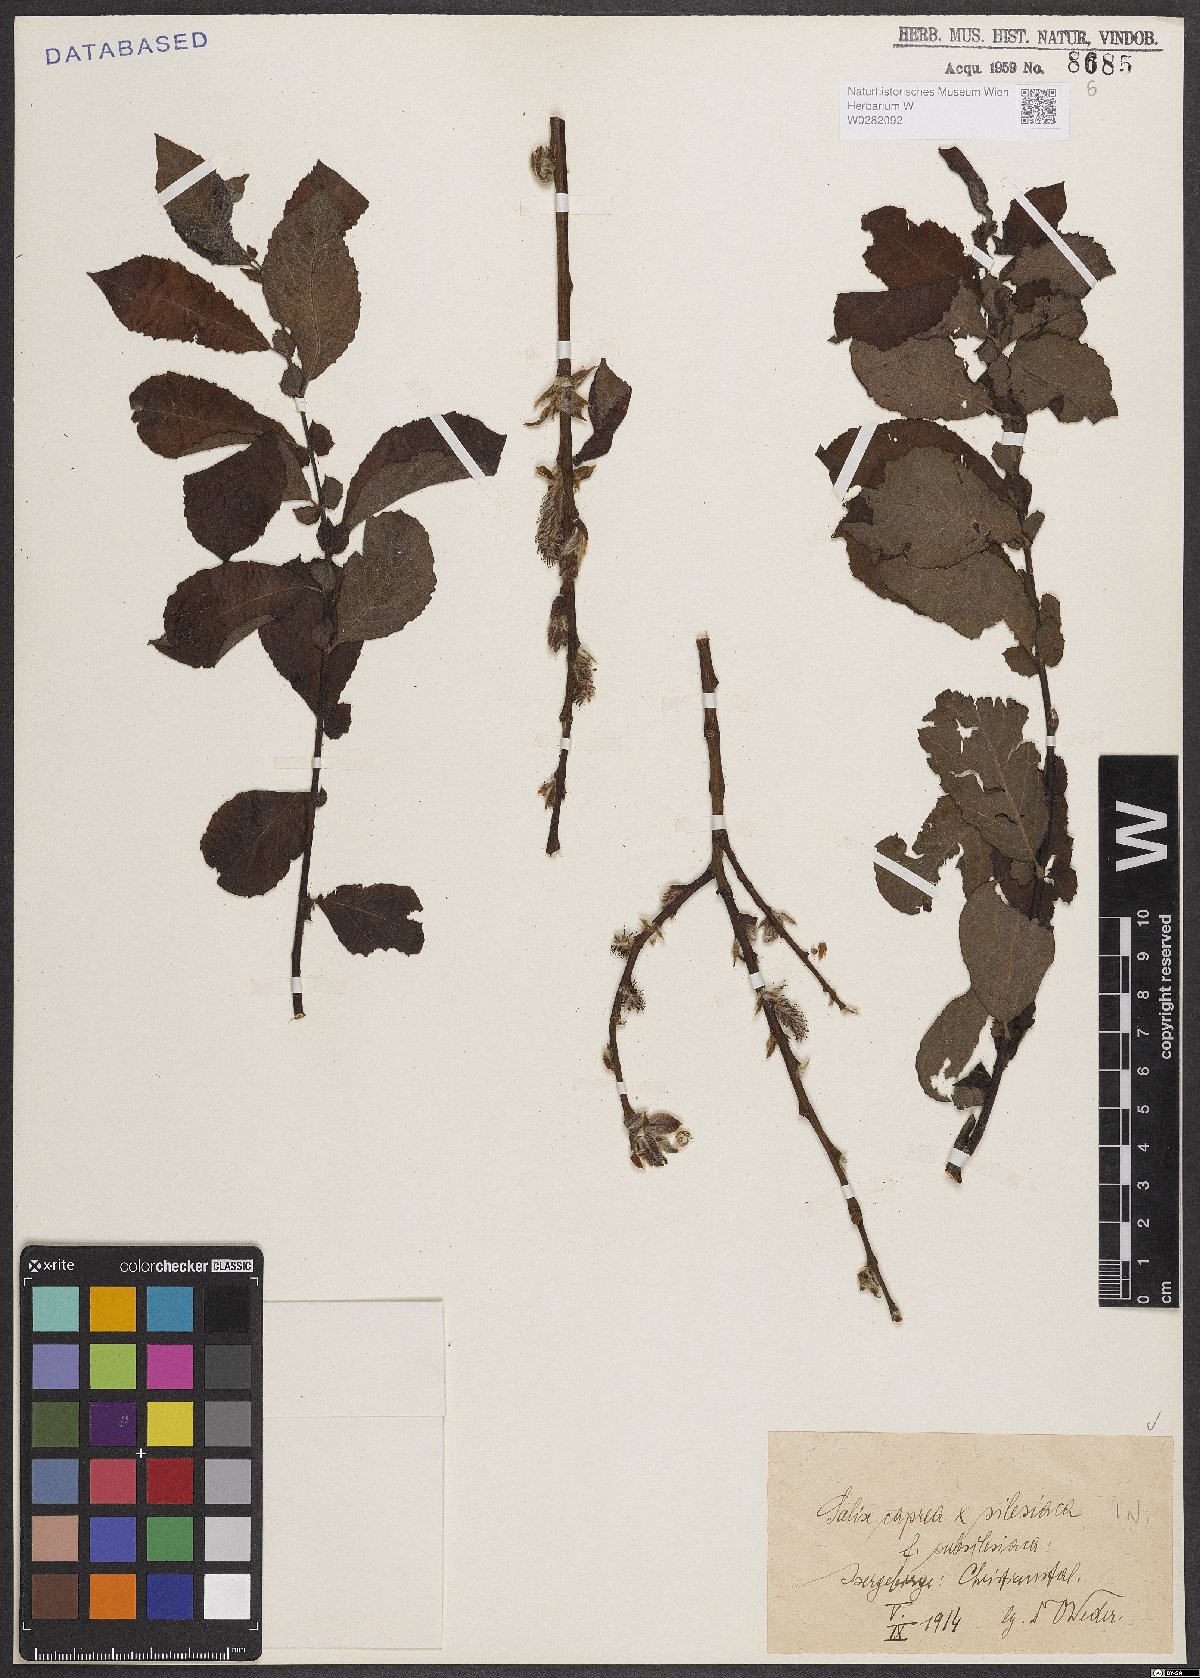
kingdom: Plantae
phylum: Tracheophyta
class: Magnoliopsida
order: Malpighiales
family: Salicaceae
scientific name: Salicaceae
